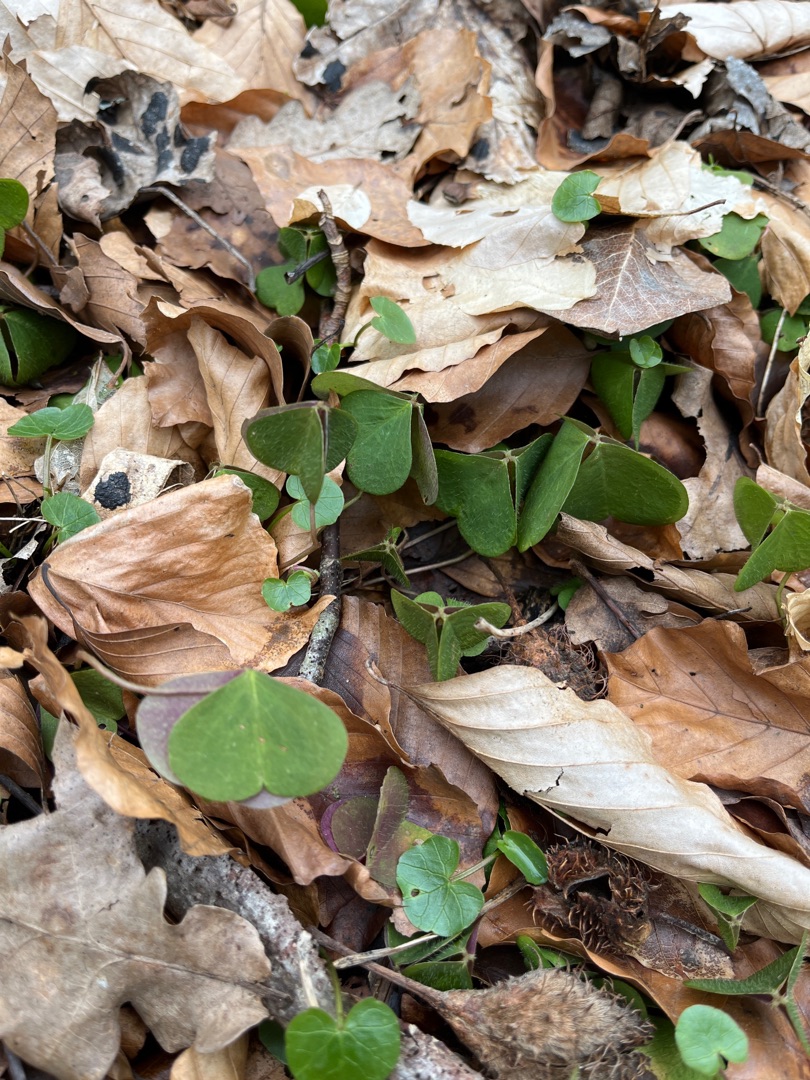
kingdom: Plantae
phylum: Tracheophyta
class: Magnoliopsida
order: Oxalidales
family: Oxalidaceae
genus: Oxalis
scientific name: Oxalis acetosella
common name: Skovsyre
